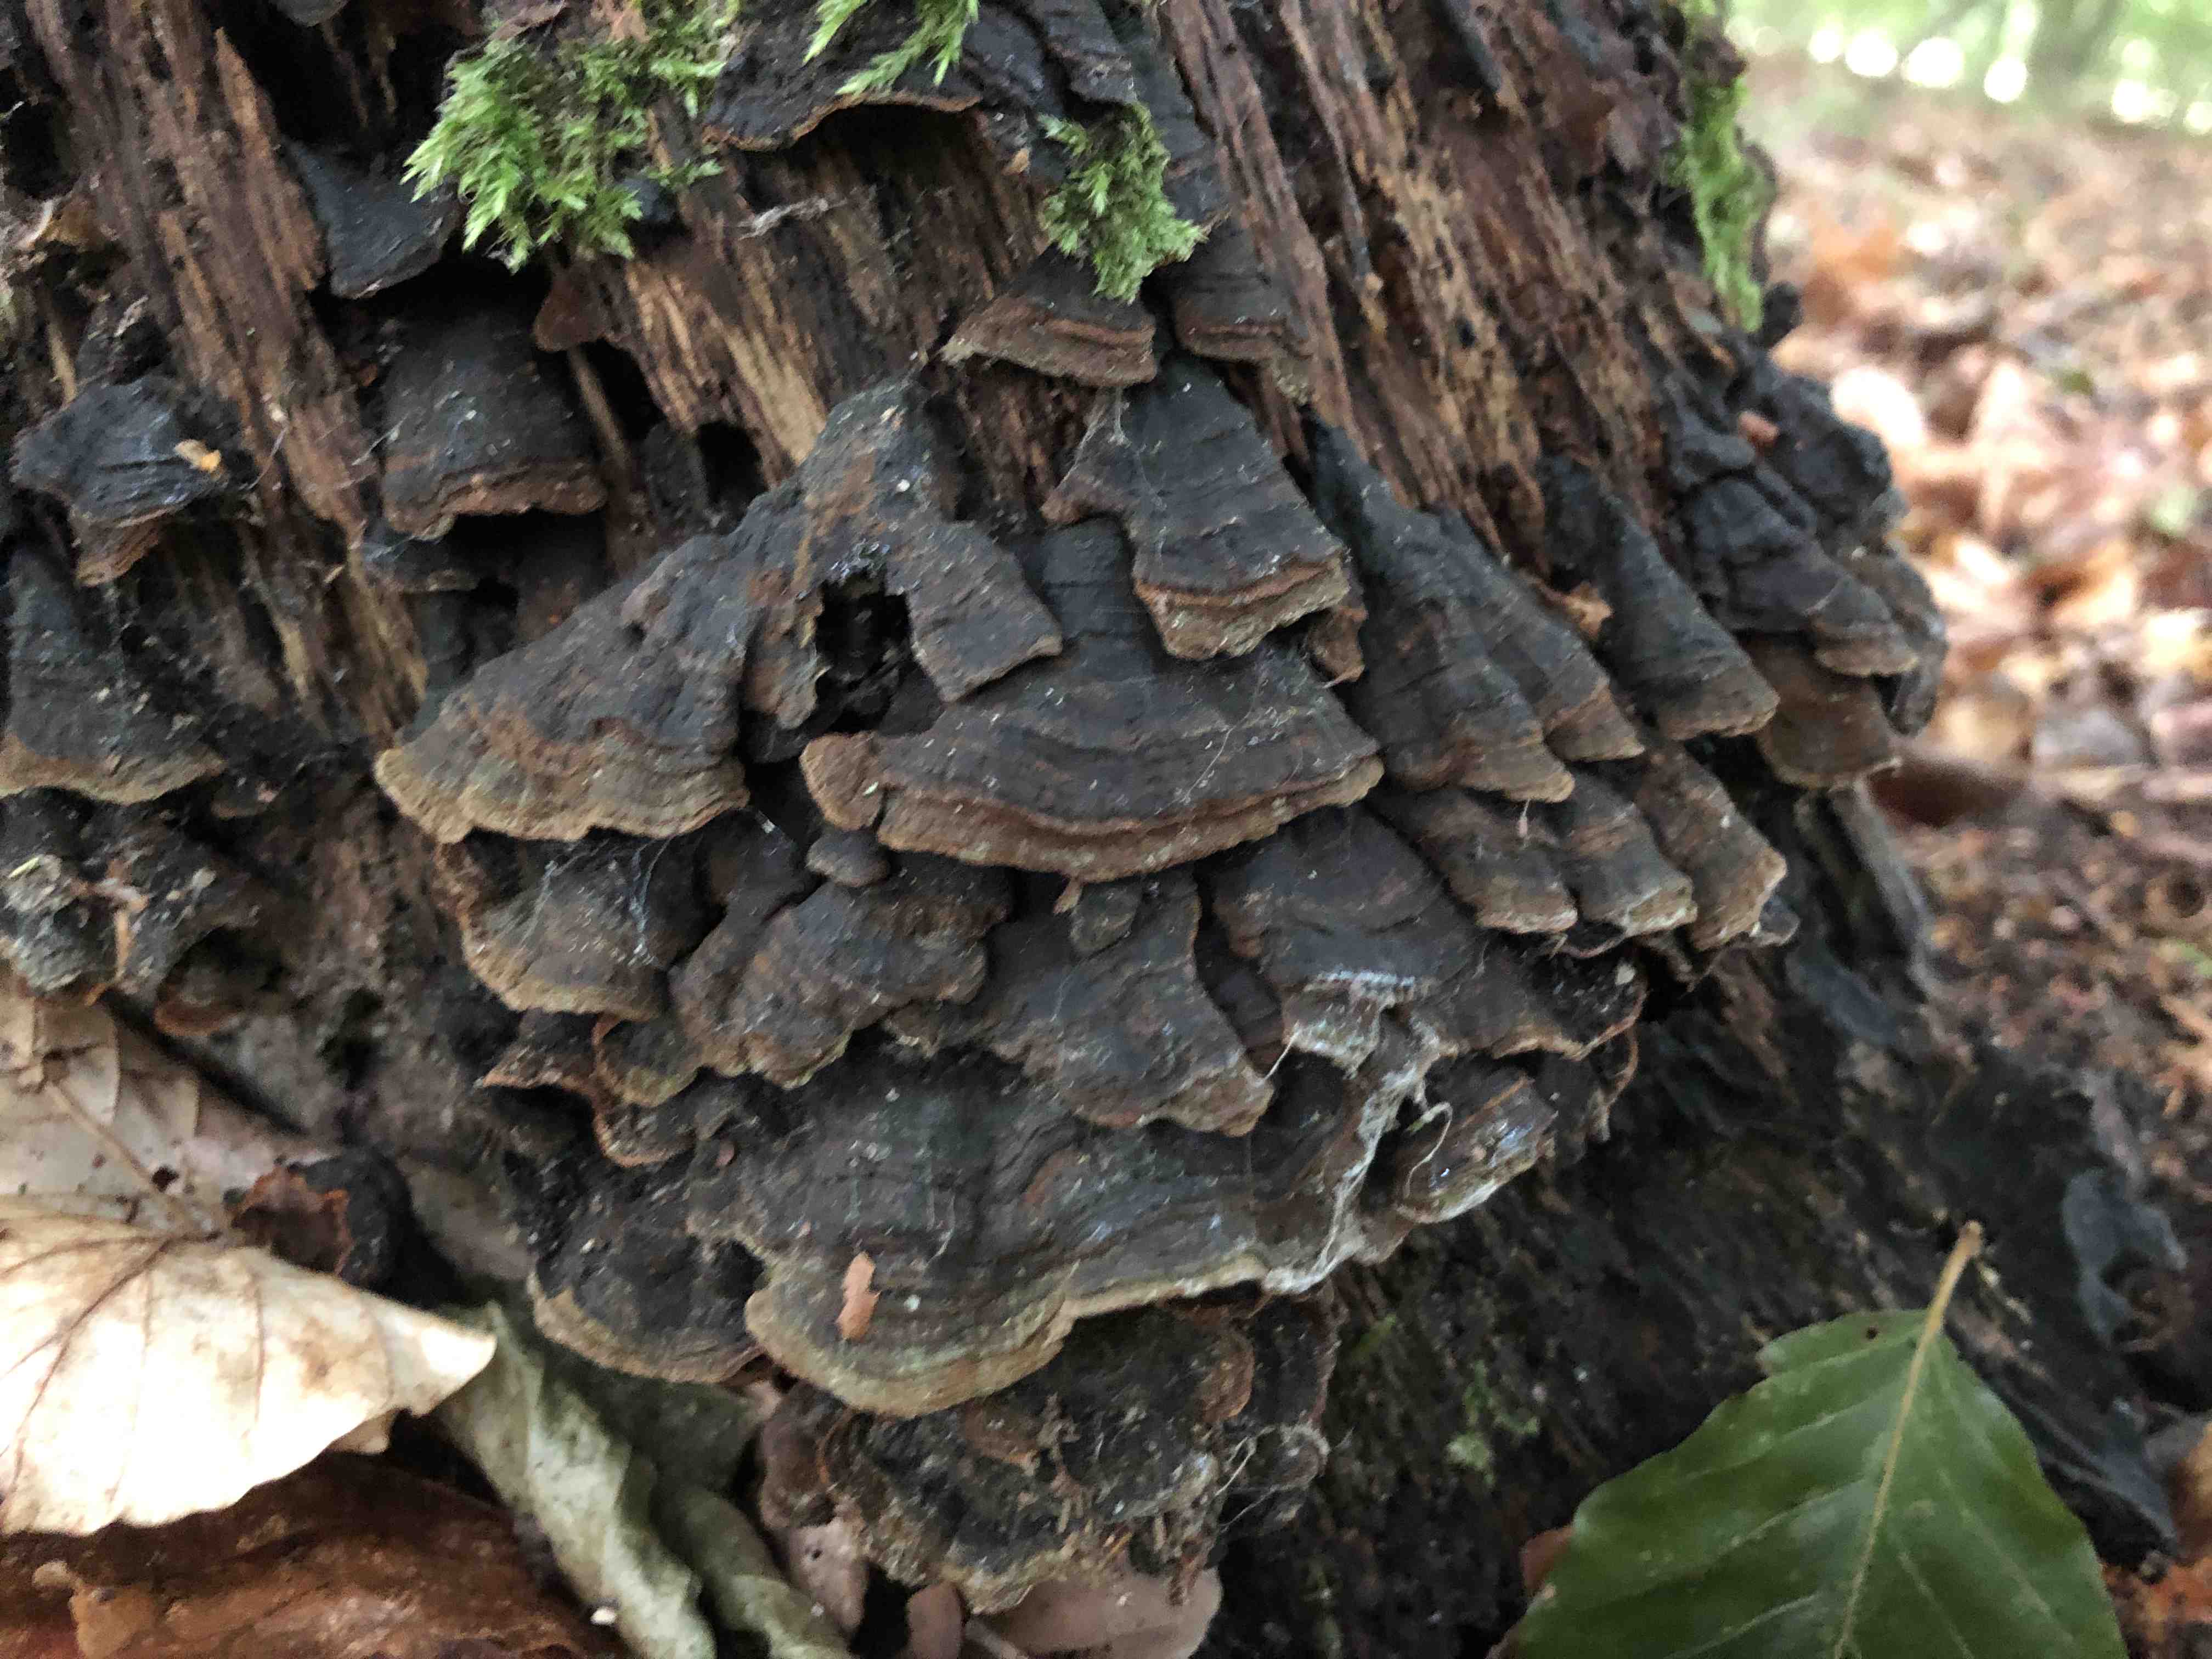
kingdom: Fungi
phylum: Basidiomycota
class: Agaricomycetes
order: Hymenochaetales
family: Hymenochaetaceae
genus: Hymenochaete
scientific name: Hymenochaete rubiginosa
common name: stiv ruslædersvamp
